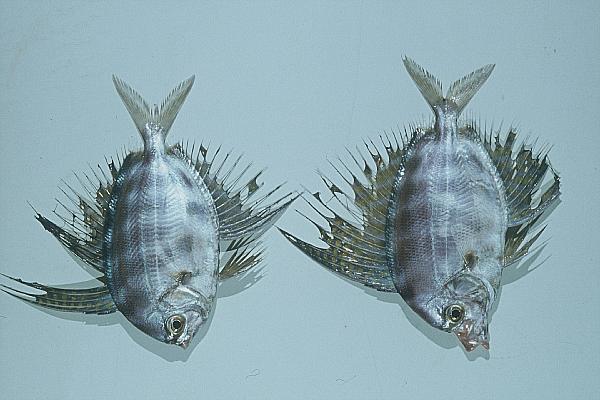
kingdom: Animalia
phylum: Chordata
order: Lampriformes
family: Veliferidae
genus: Velifer
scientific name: Velifer hypselopterus
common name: Sailfin velifer
